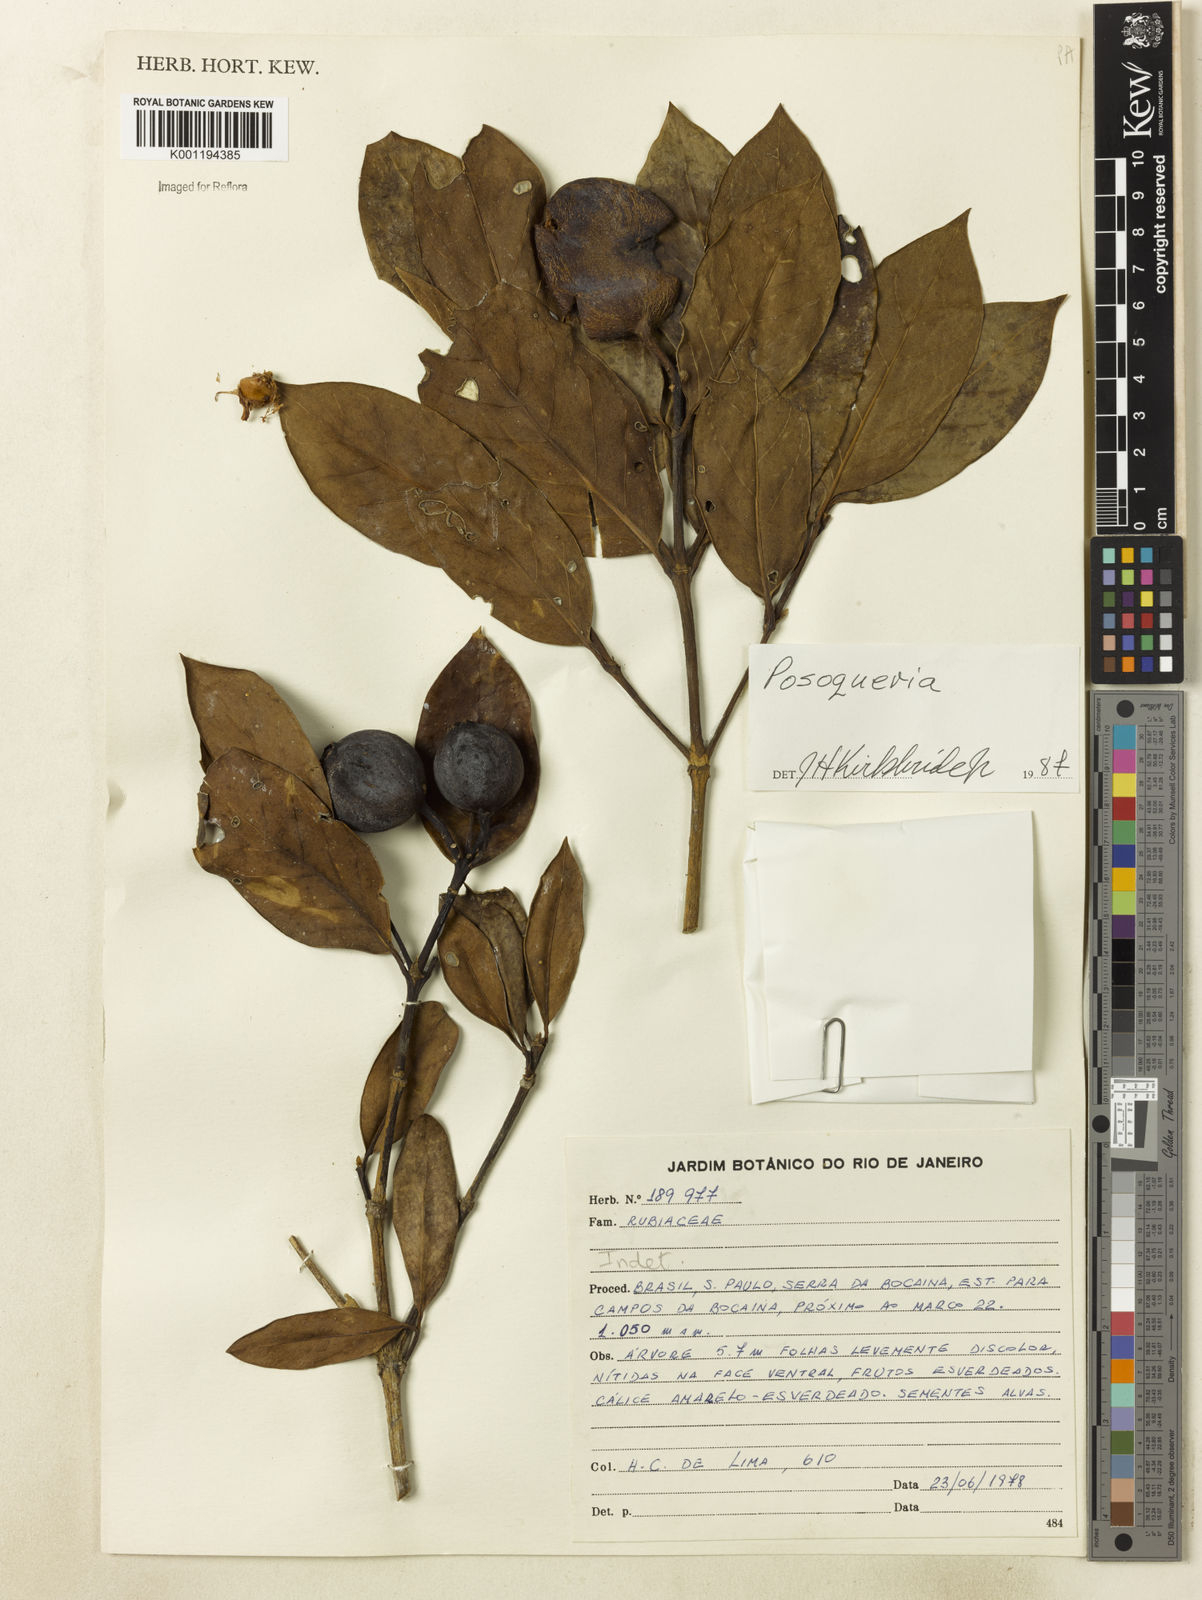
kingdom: Plantae
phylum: Tracheophyta
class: Magnoliopsida
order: Gentianales
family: Rubiaceae
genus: Posoqueria
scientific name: Posoqueria
